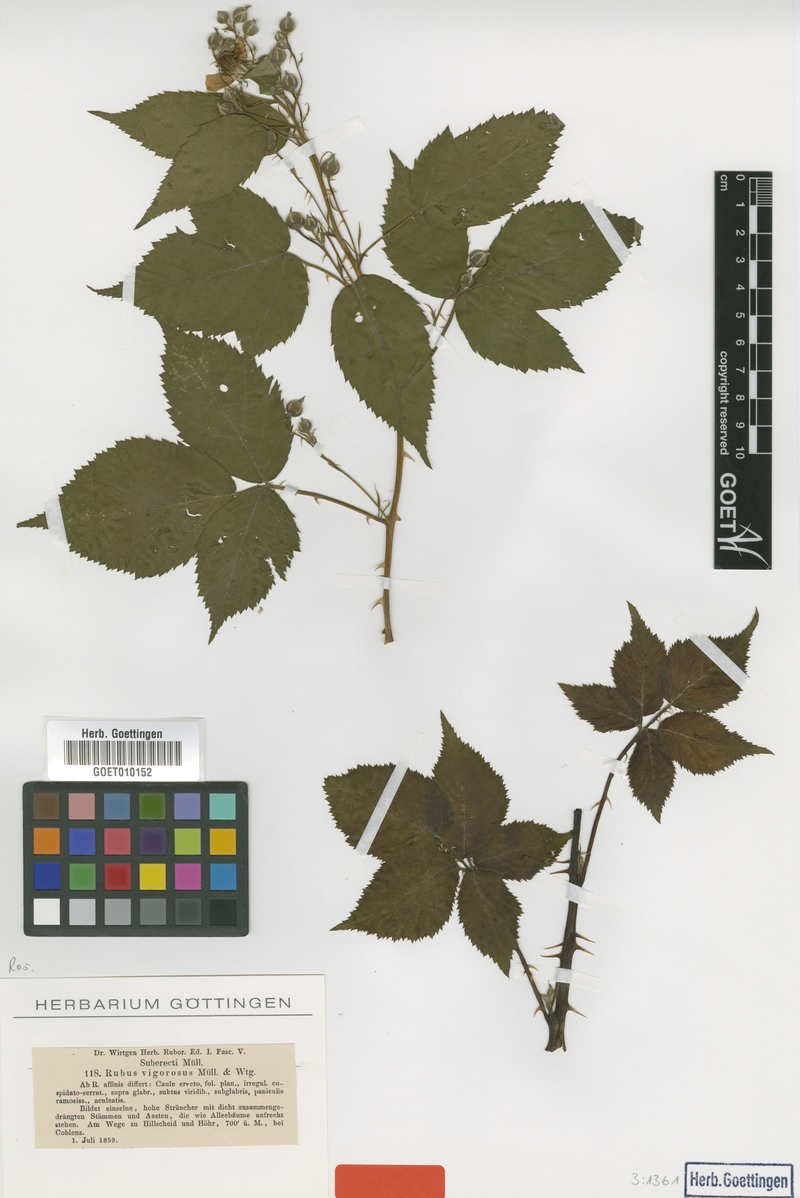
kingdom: Plantae
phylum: Tracheophyta
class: Magnoliopsida
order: Rosales
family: Rosaceae
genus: Rubus
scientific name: Rubus affinis
